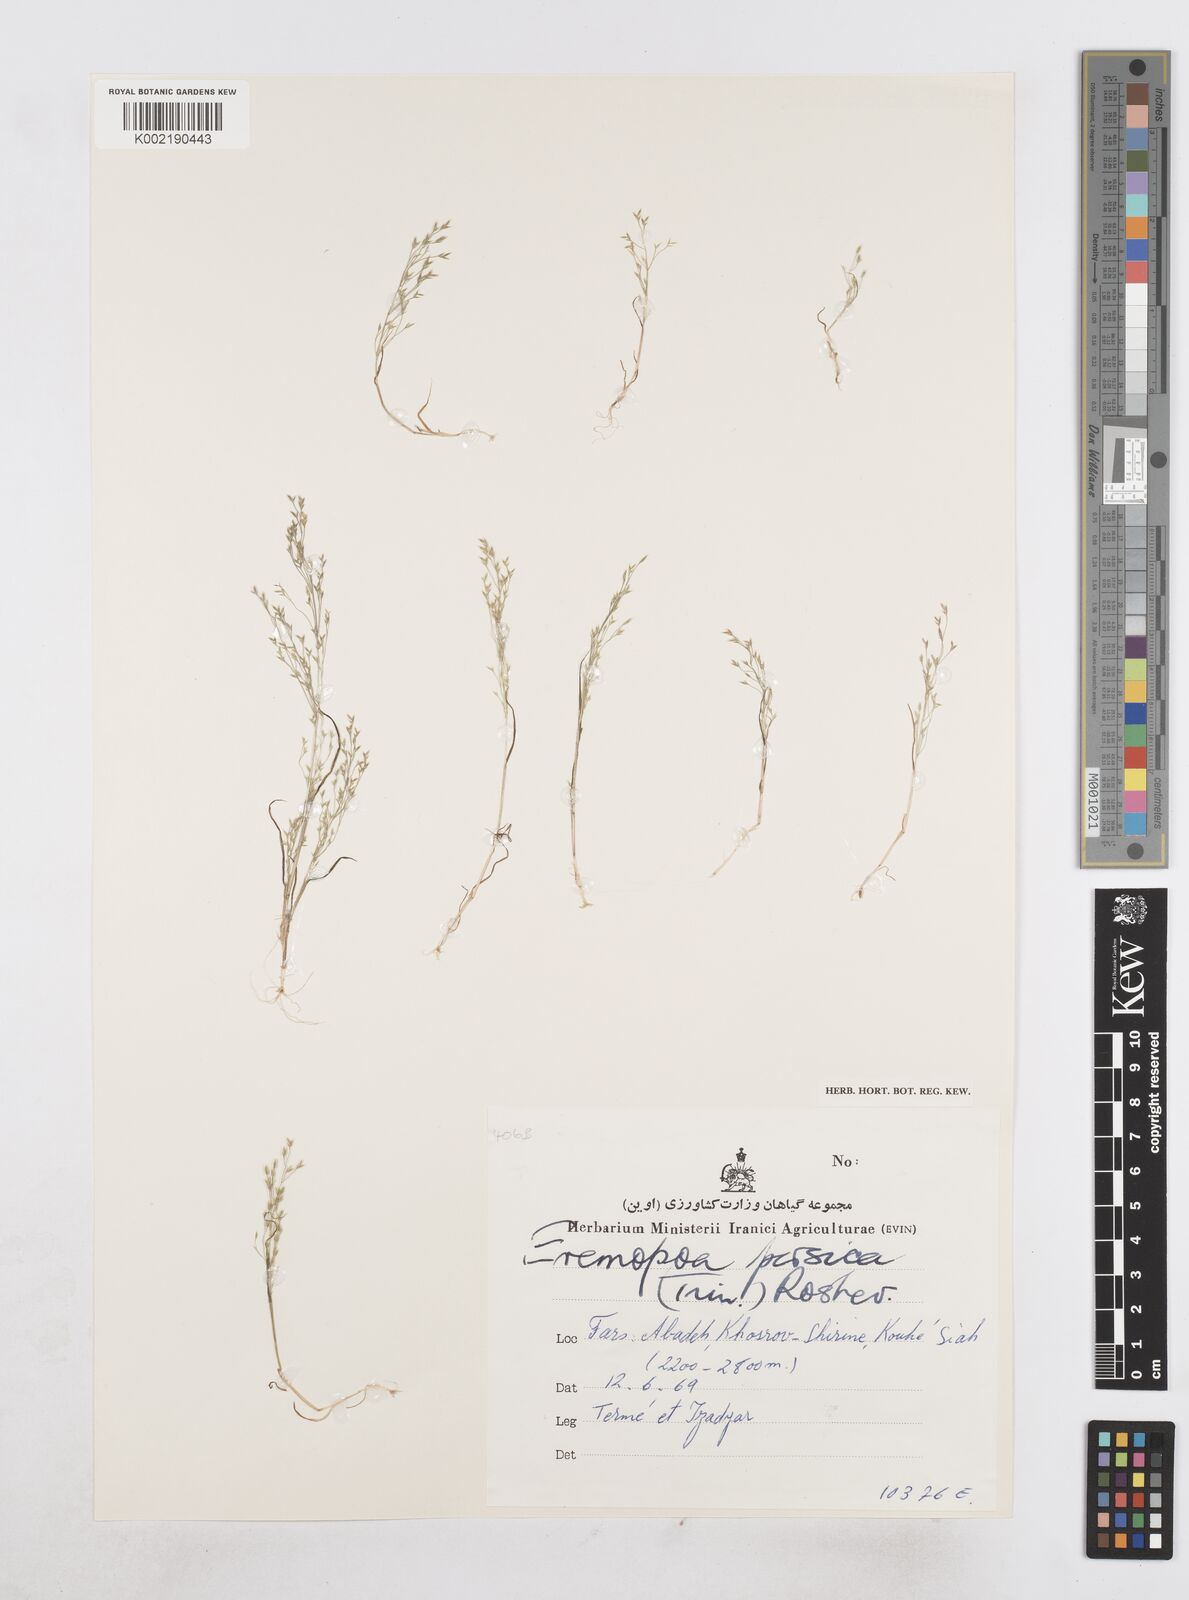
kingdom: Plantae
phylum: Tracheophyta
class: Liliopsida
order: Poales
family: Poaceae
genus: Poa
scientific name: Poa diaphora
